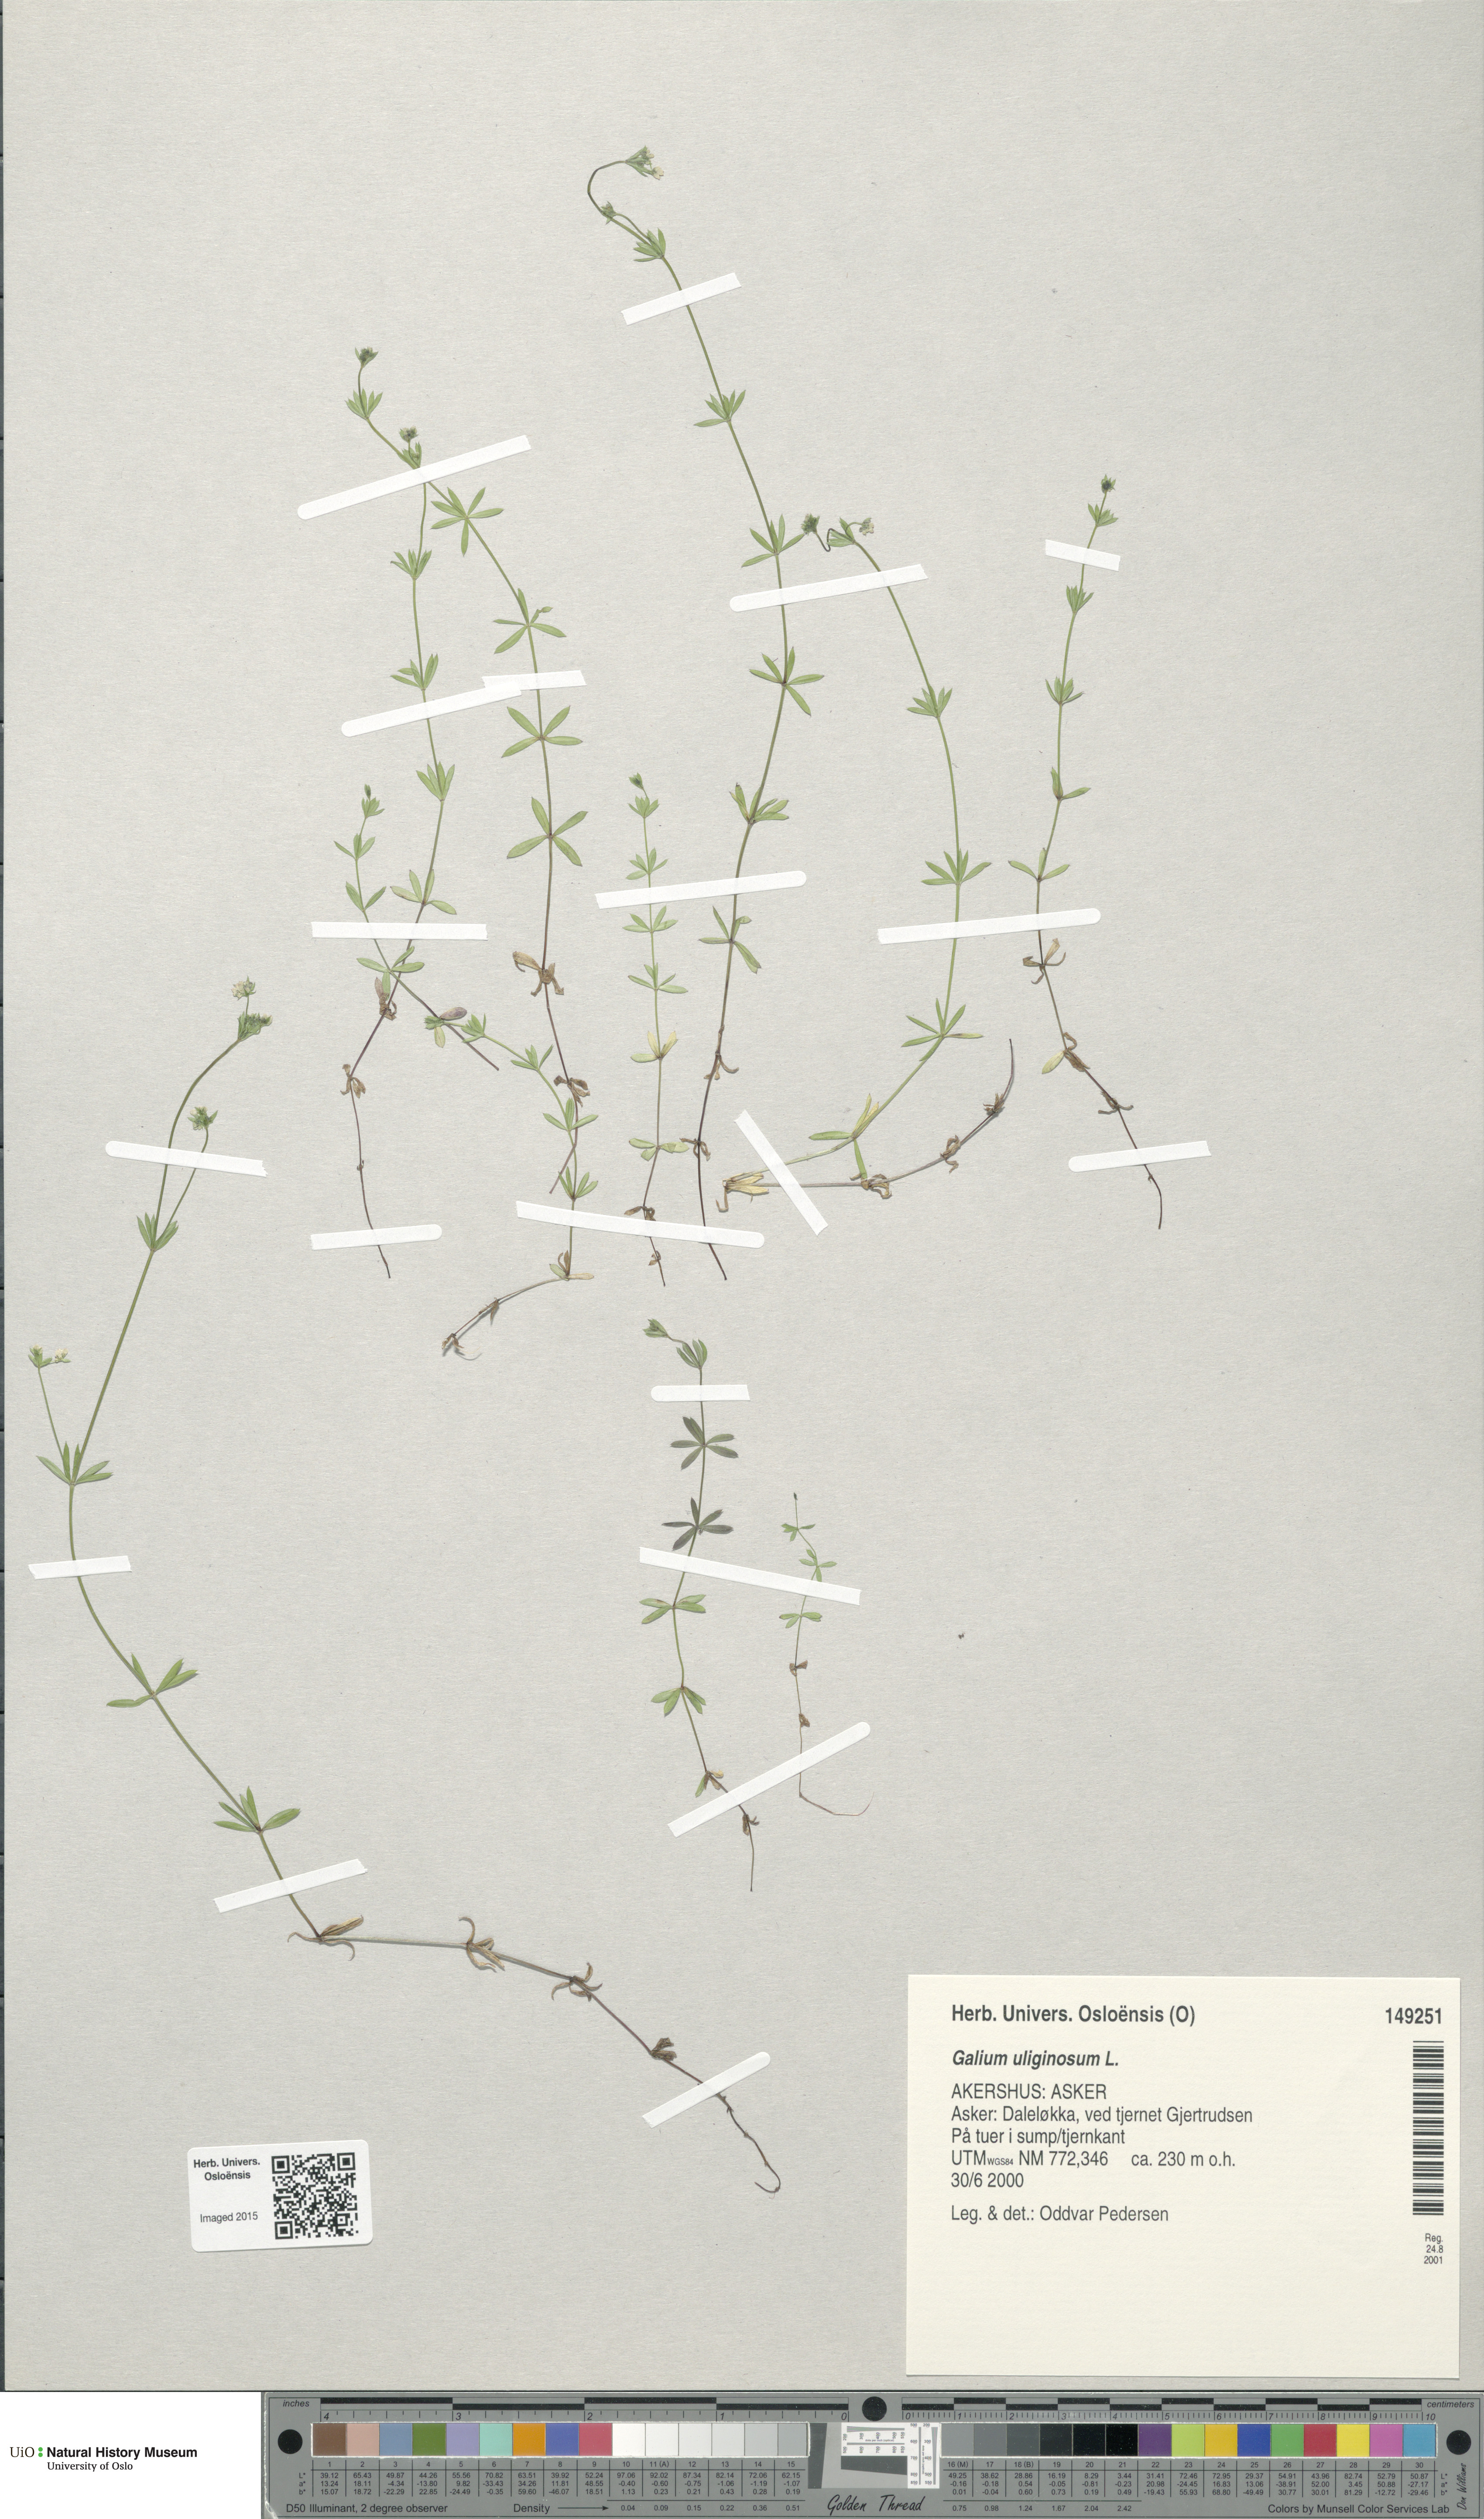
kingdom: Plantae
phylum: Tracheophyta
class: Magnoliopsida
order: Gentianales
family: Rubiaceae
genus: Galium
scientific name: Galium uliginosum
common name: Fen bedstraw
